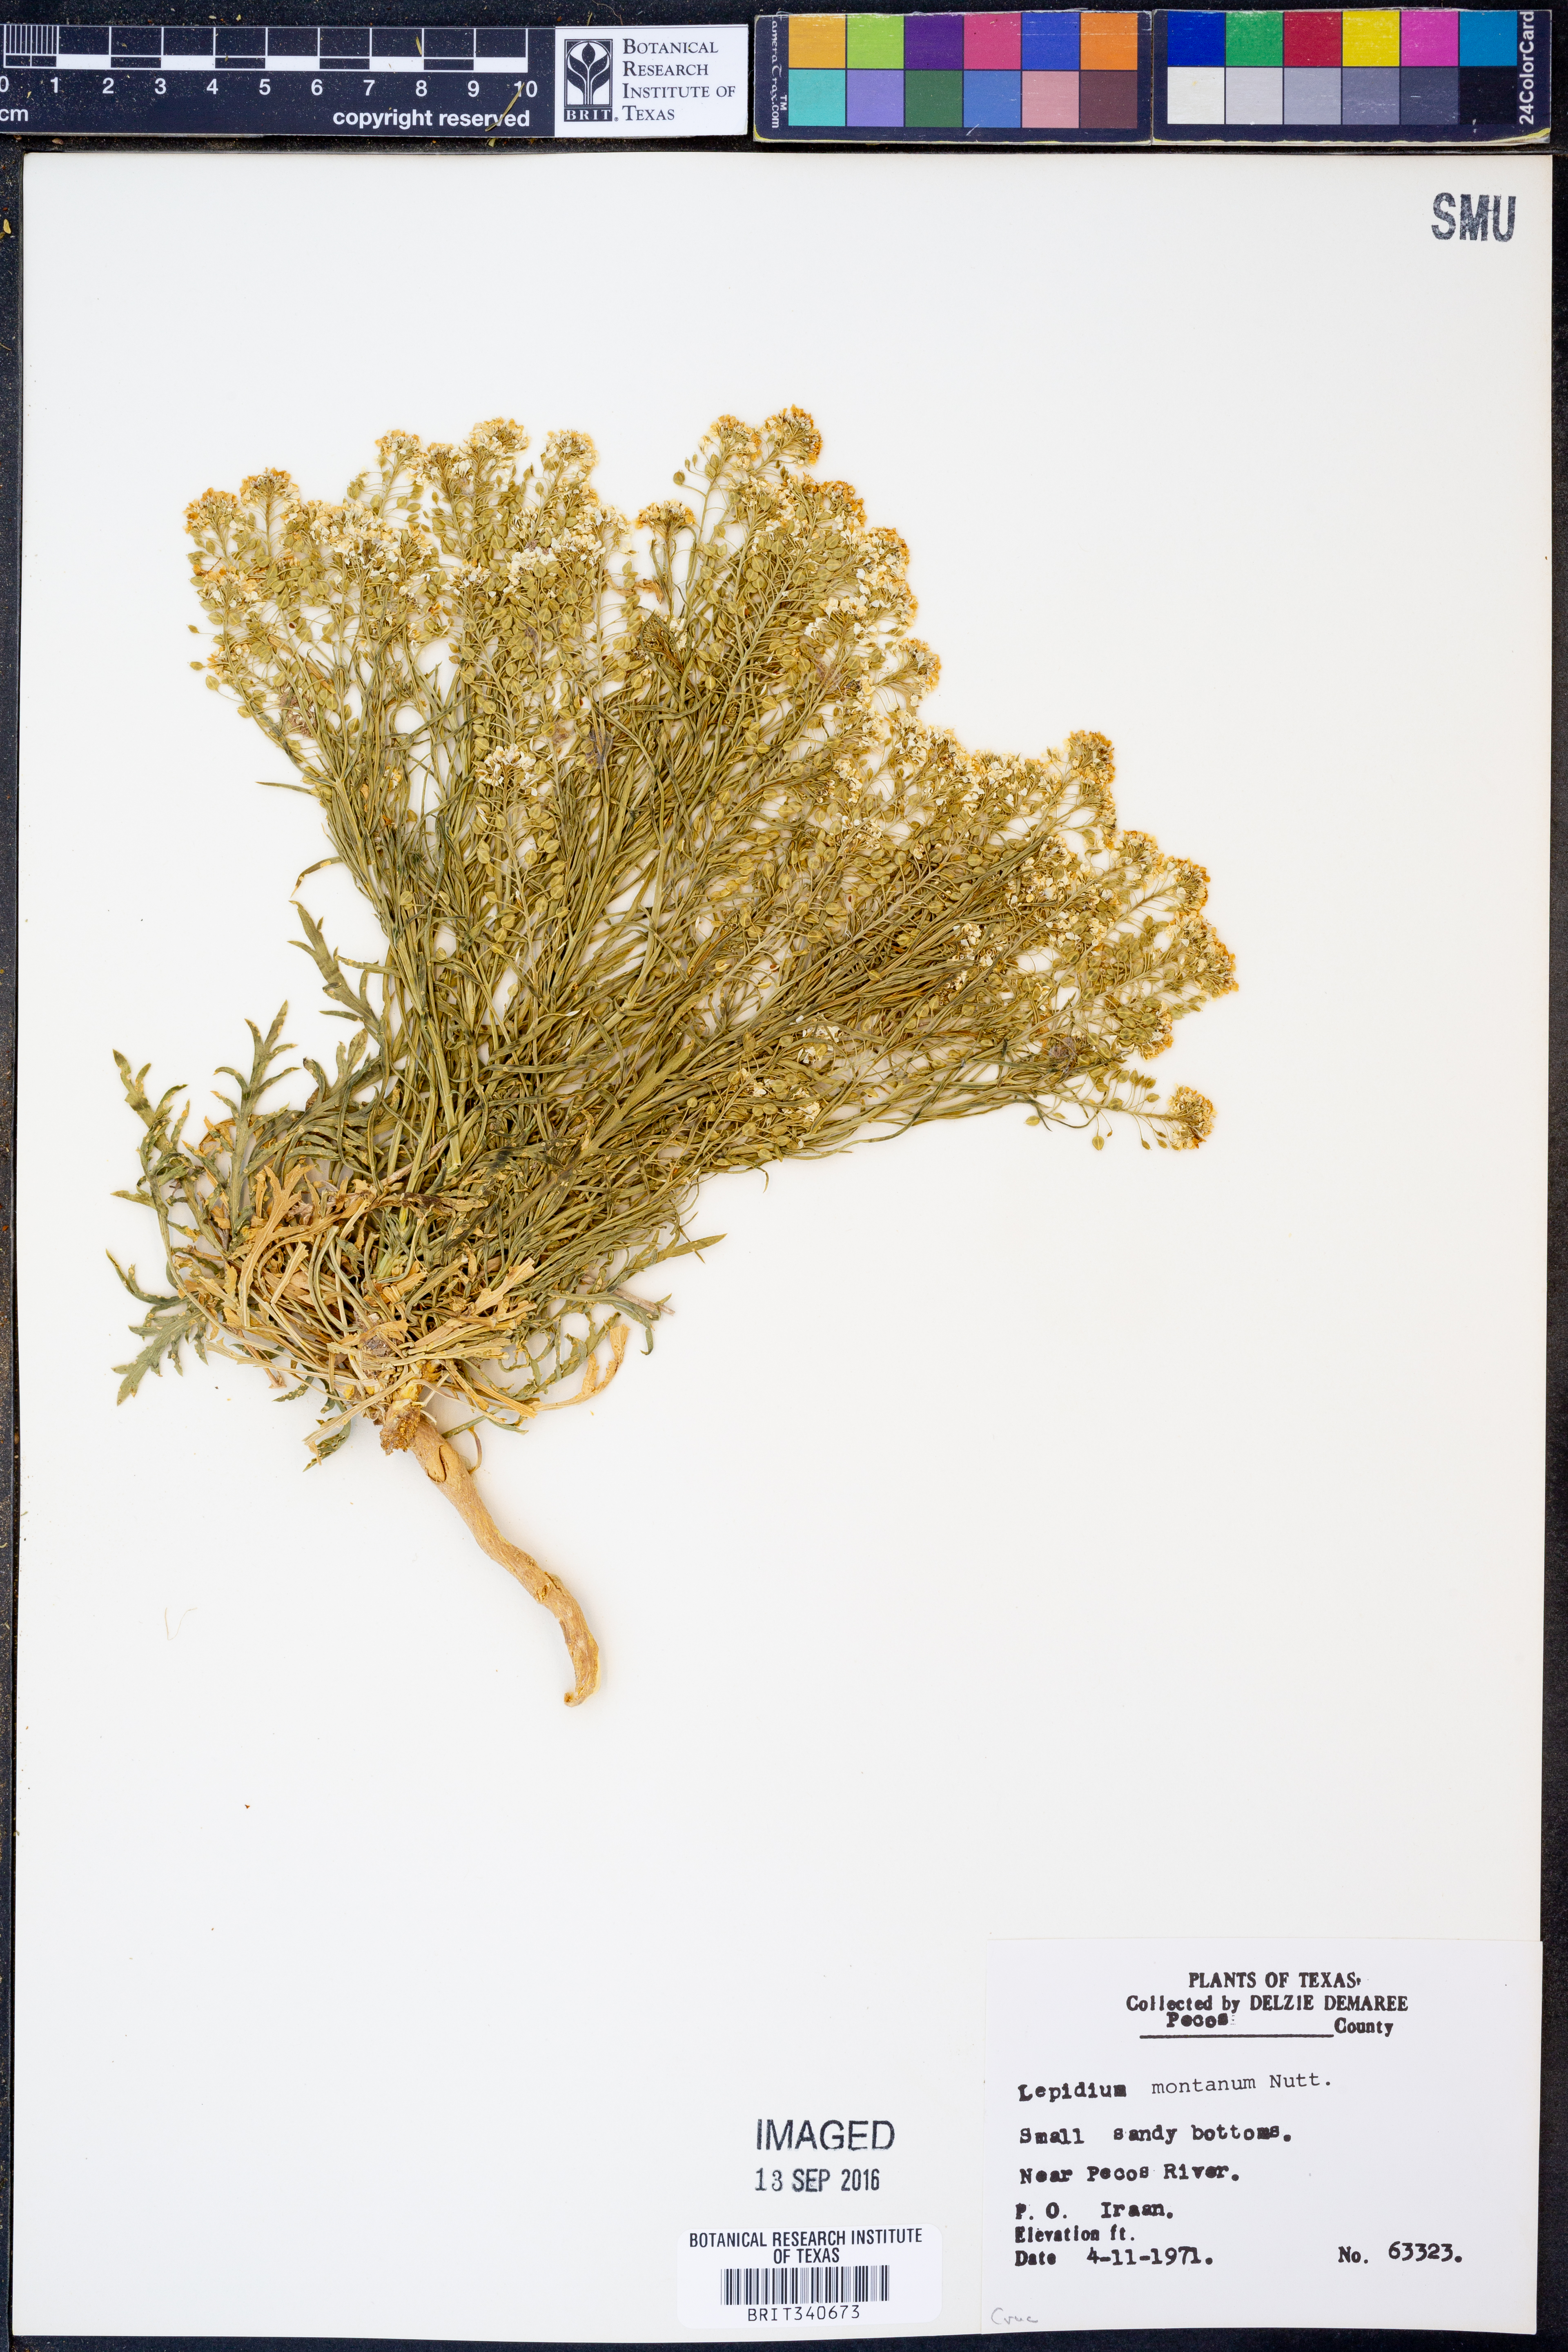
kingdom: Plantae
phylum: Tracheophyta
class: Magnoliopsida
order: Brassicales
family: Brassicaceae
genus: Lepidium
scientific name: Lepidium montanum
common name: Mountain pepperplant
